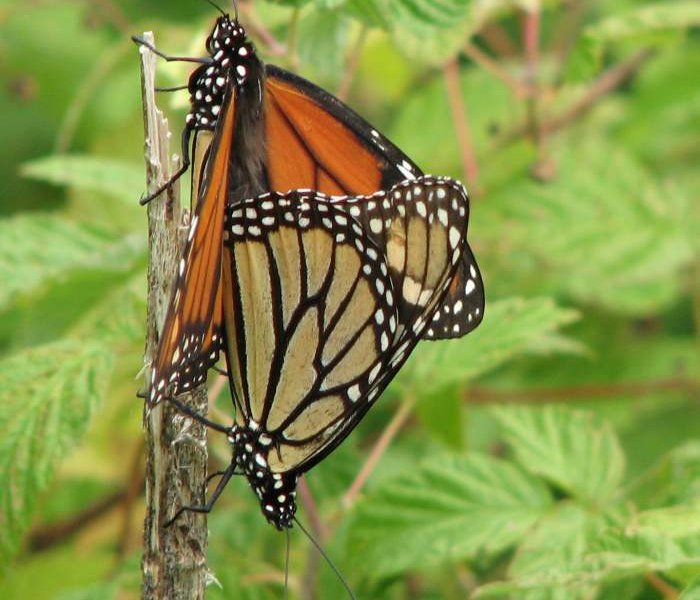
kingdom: Animalia
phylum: Arthropoda
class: Insecta
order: Lepidoptera
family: Nymphalidae
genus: Danaus
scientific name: Danaus plexippus
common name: Monarch
